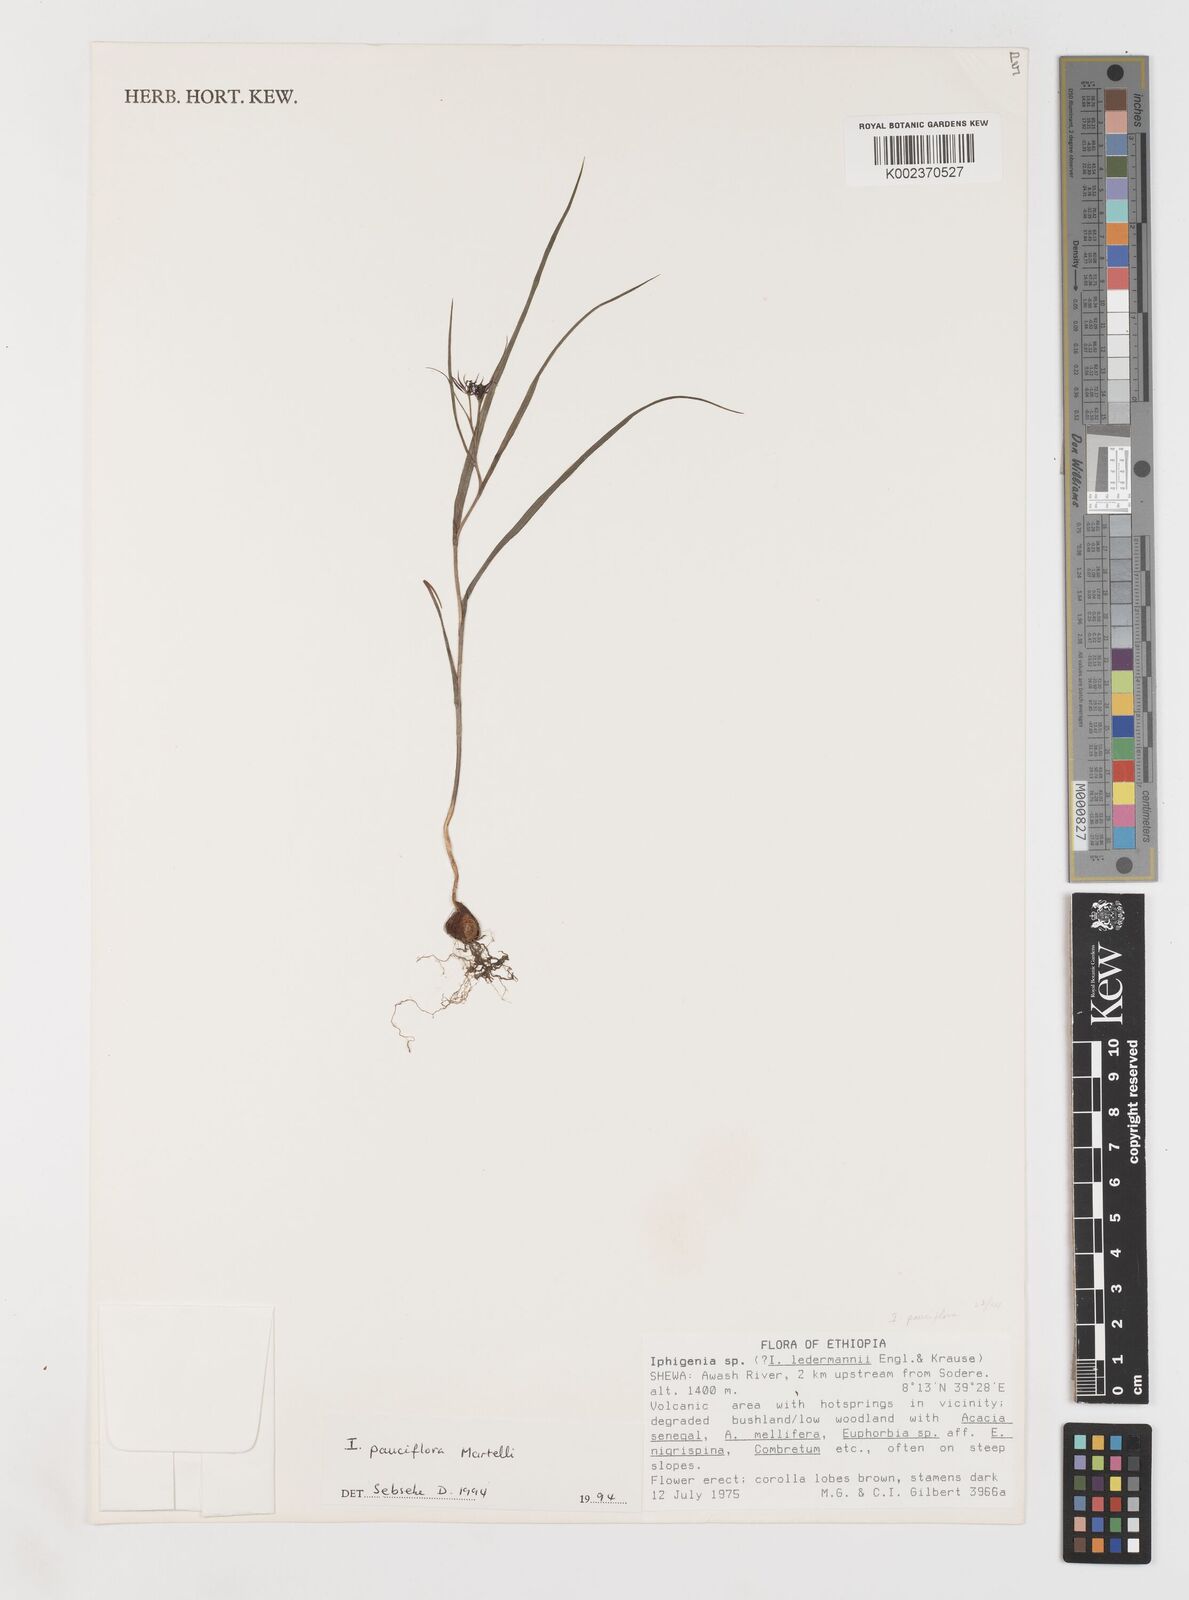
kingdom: Plantae
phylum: Tracheophyta
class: Liliopsida
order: Liliales
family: Colchicaceae
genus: Iphigenia
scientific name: Iphigenia pauciflora
